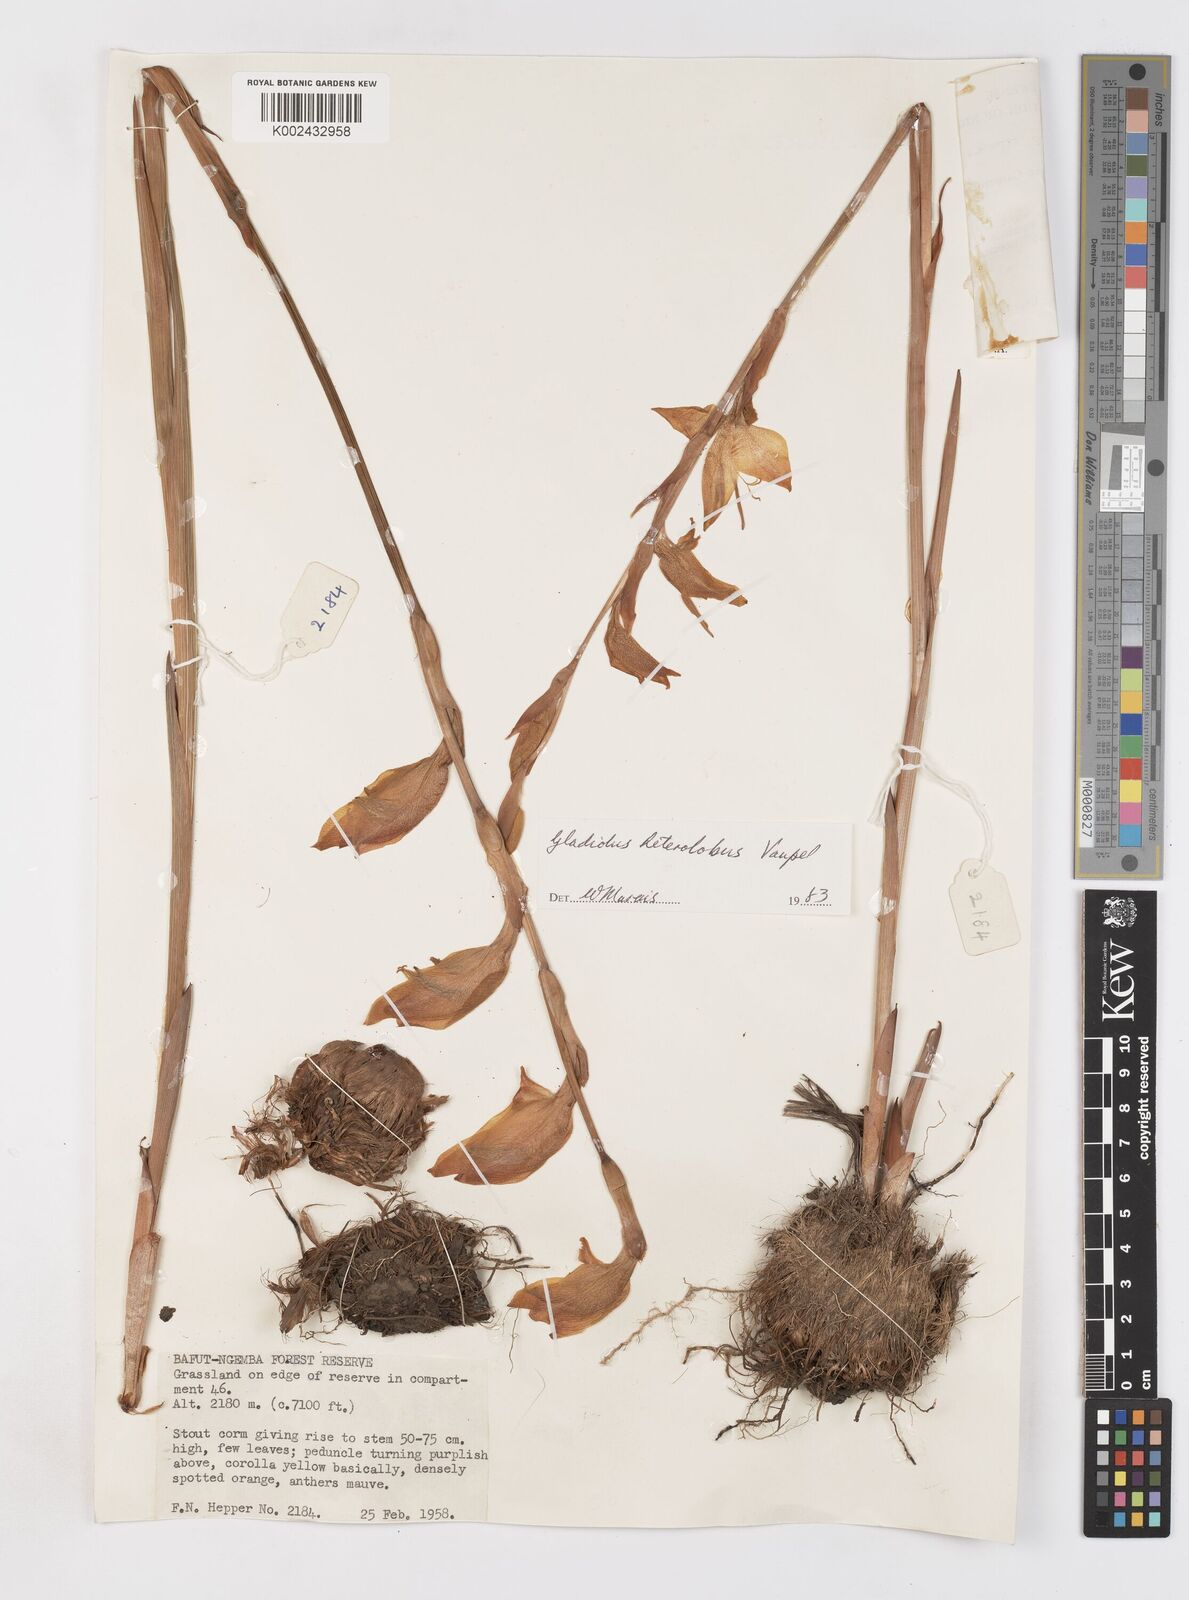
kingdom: Plantae
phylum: Tracheophyta
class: Liliopsida
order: Asparagales
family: Iridaceae
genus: Gladiolus
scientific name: Gladiolus roseolus
